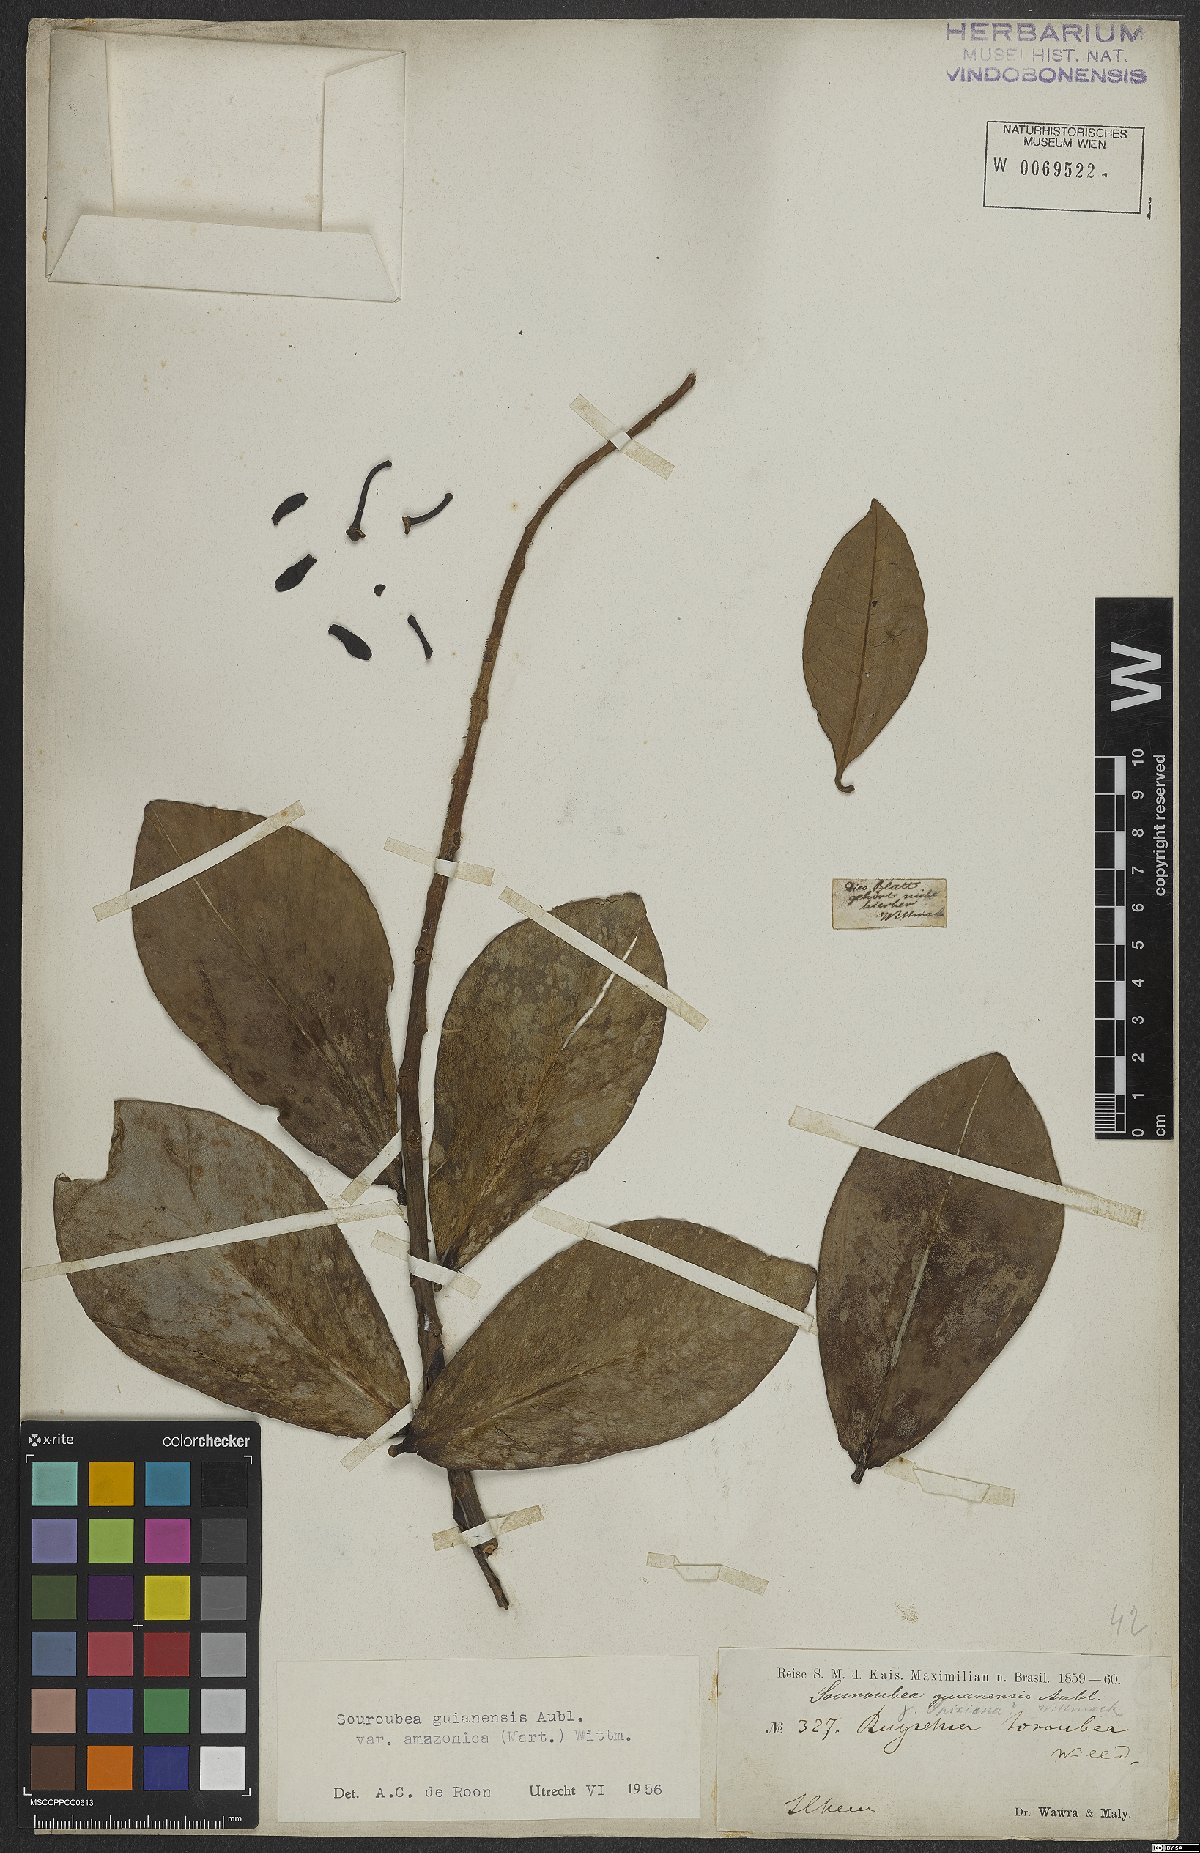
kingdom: Plantae
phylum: Tracheophyta
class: Magnoliopsida
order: Ericales
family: Marcgraviaceae
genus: Souroubea
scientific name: Souroubea guianensis
